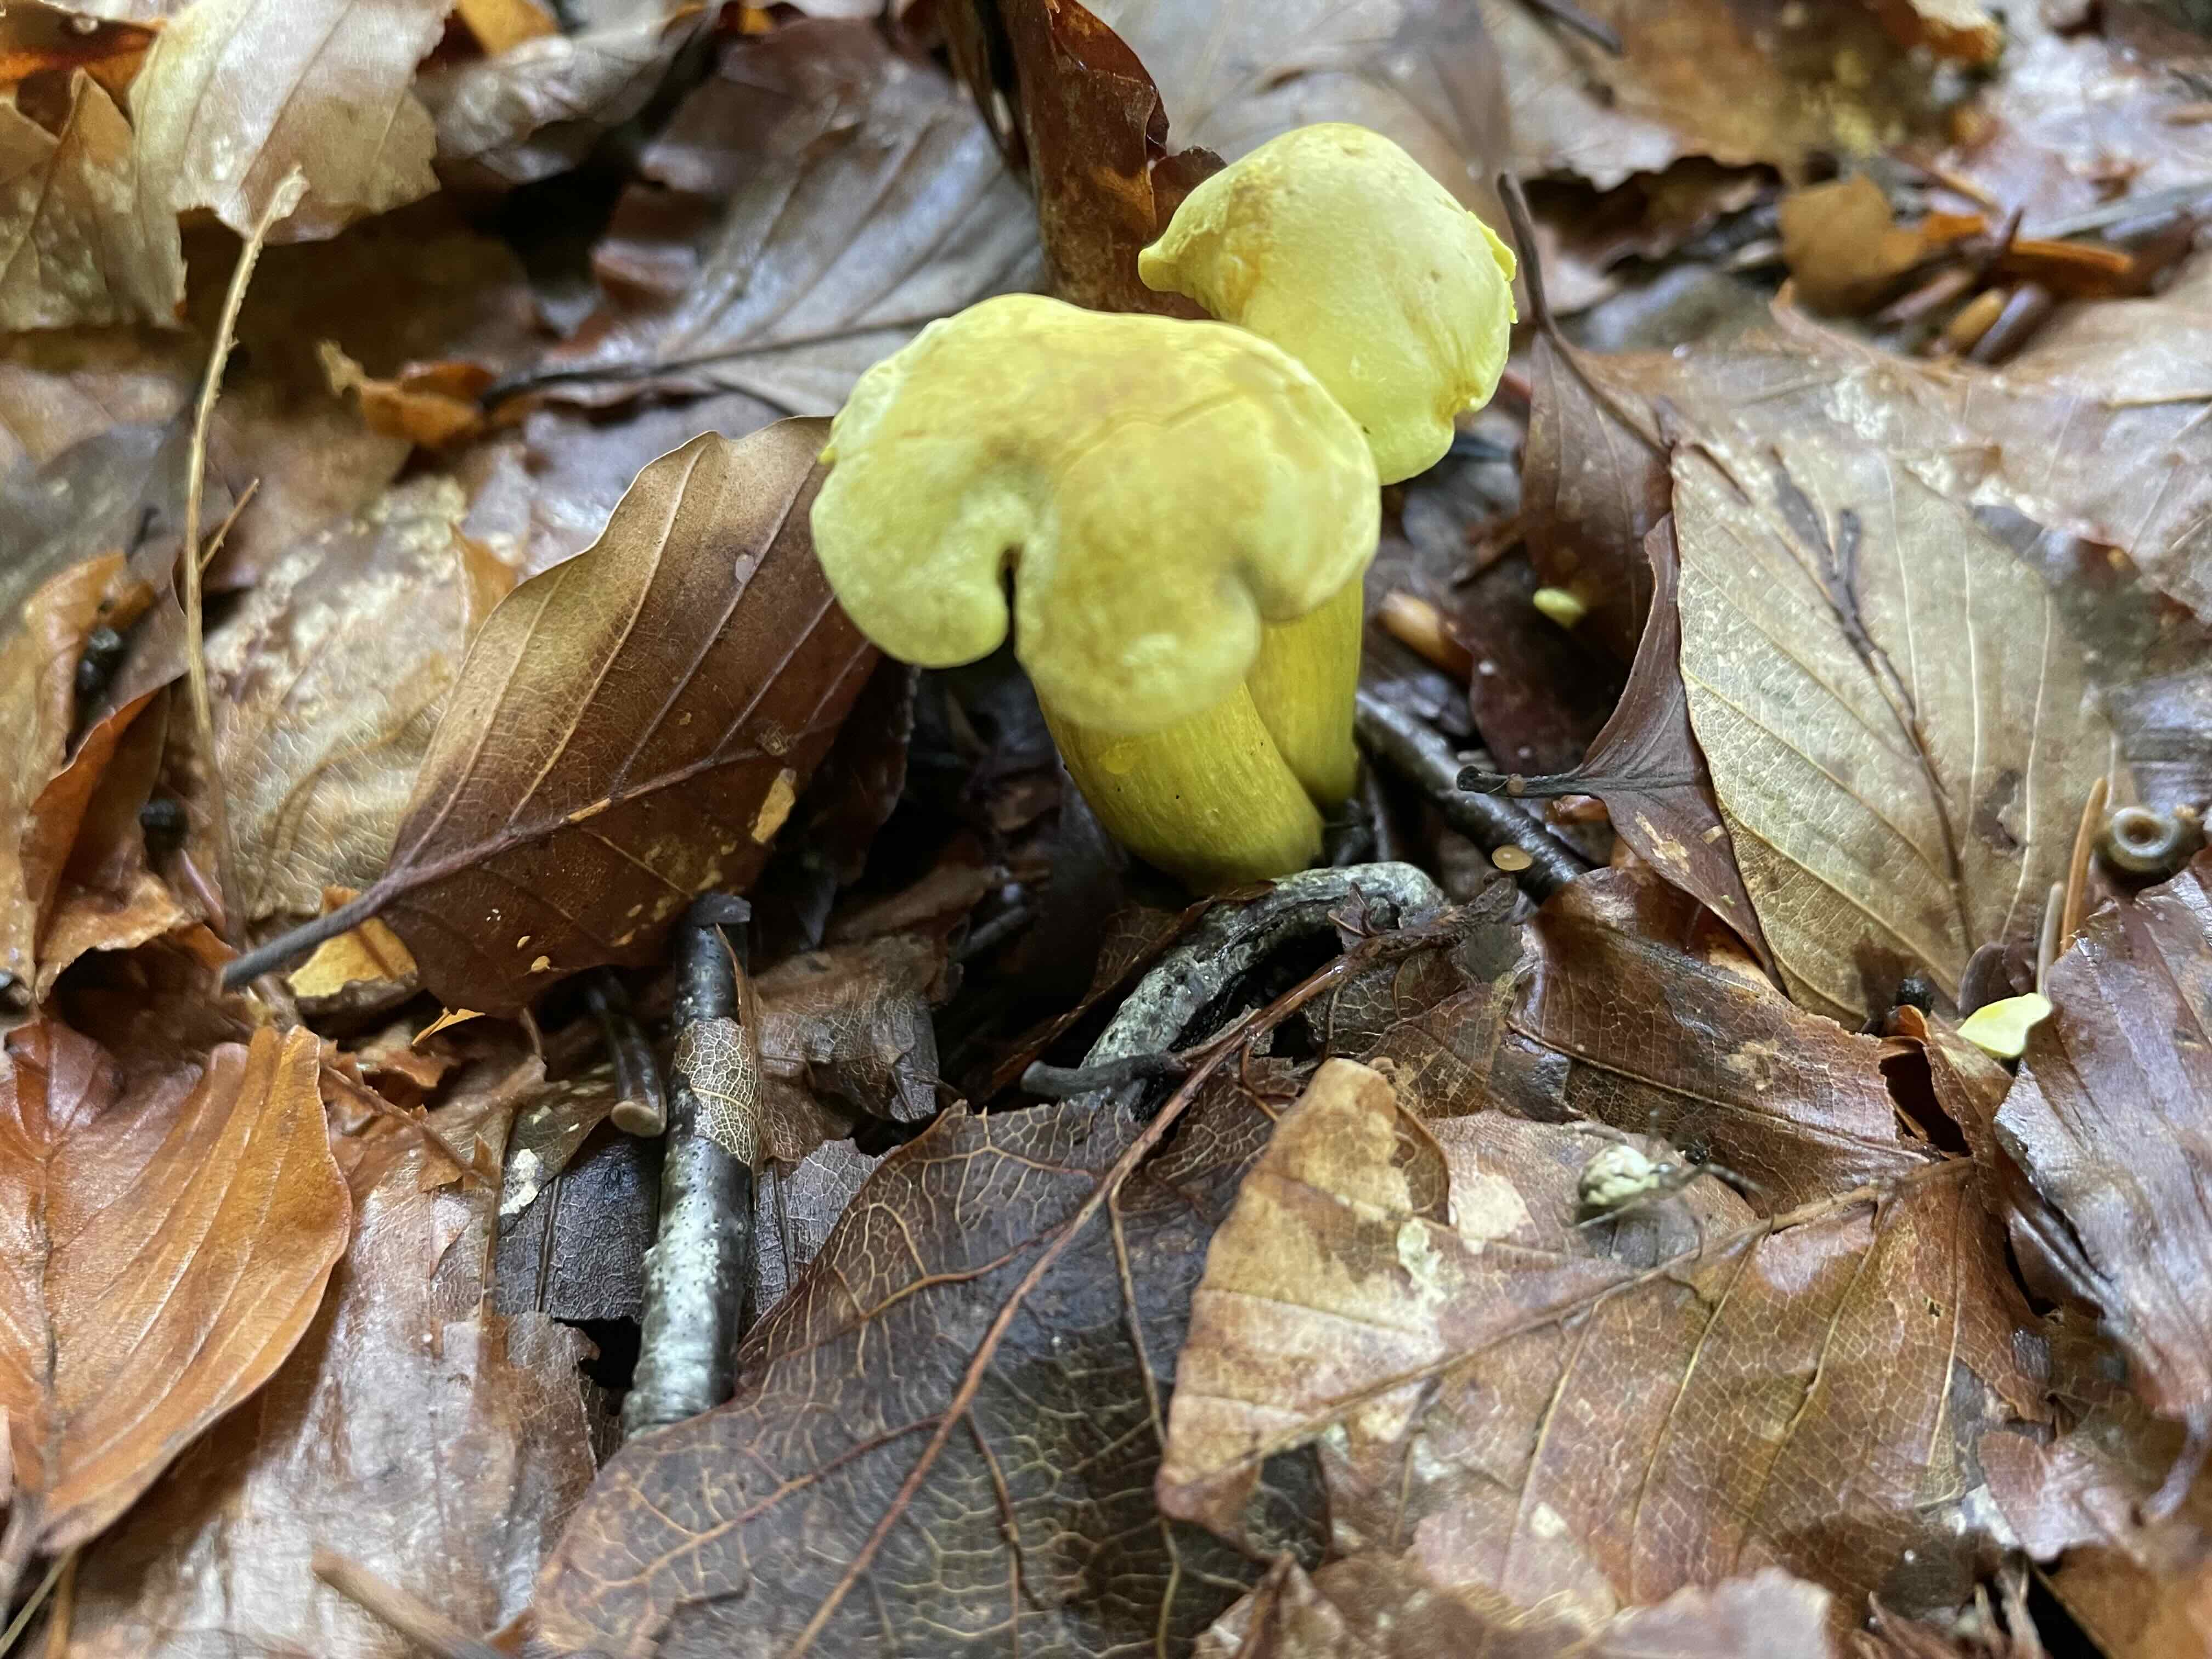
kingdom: Fungi
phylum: Basidiomycota
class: Agaricomycetes
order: Agaricales
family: Tricholomataceae
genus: Tricholoma
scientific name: Tricholoma sulphureum
